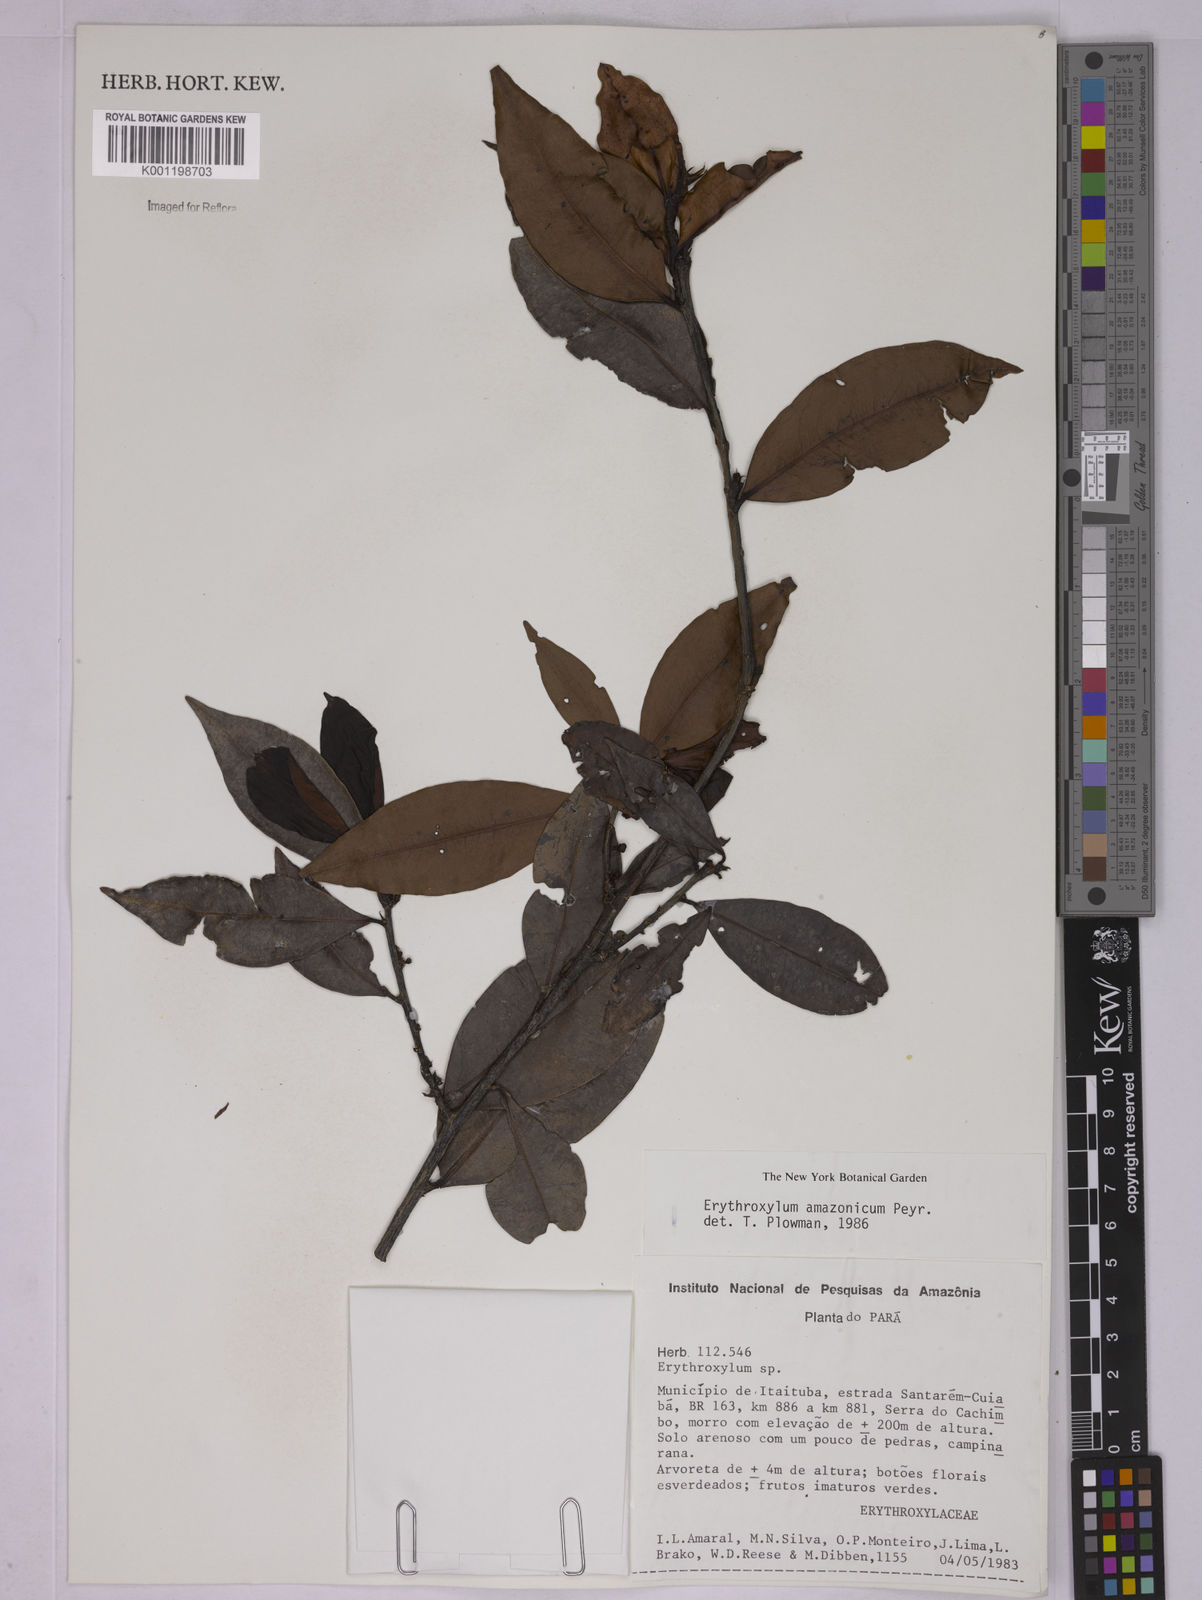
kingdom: Plantae
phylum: Tracheophyta
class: Magnoliopsida
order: Malpighiales
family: Erythroxylaceae
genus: Erythroxylum
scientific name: Erythroxylum amazonicum
